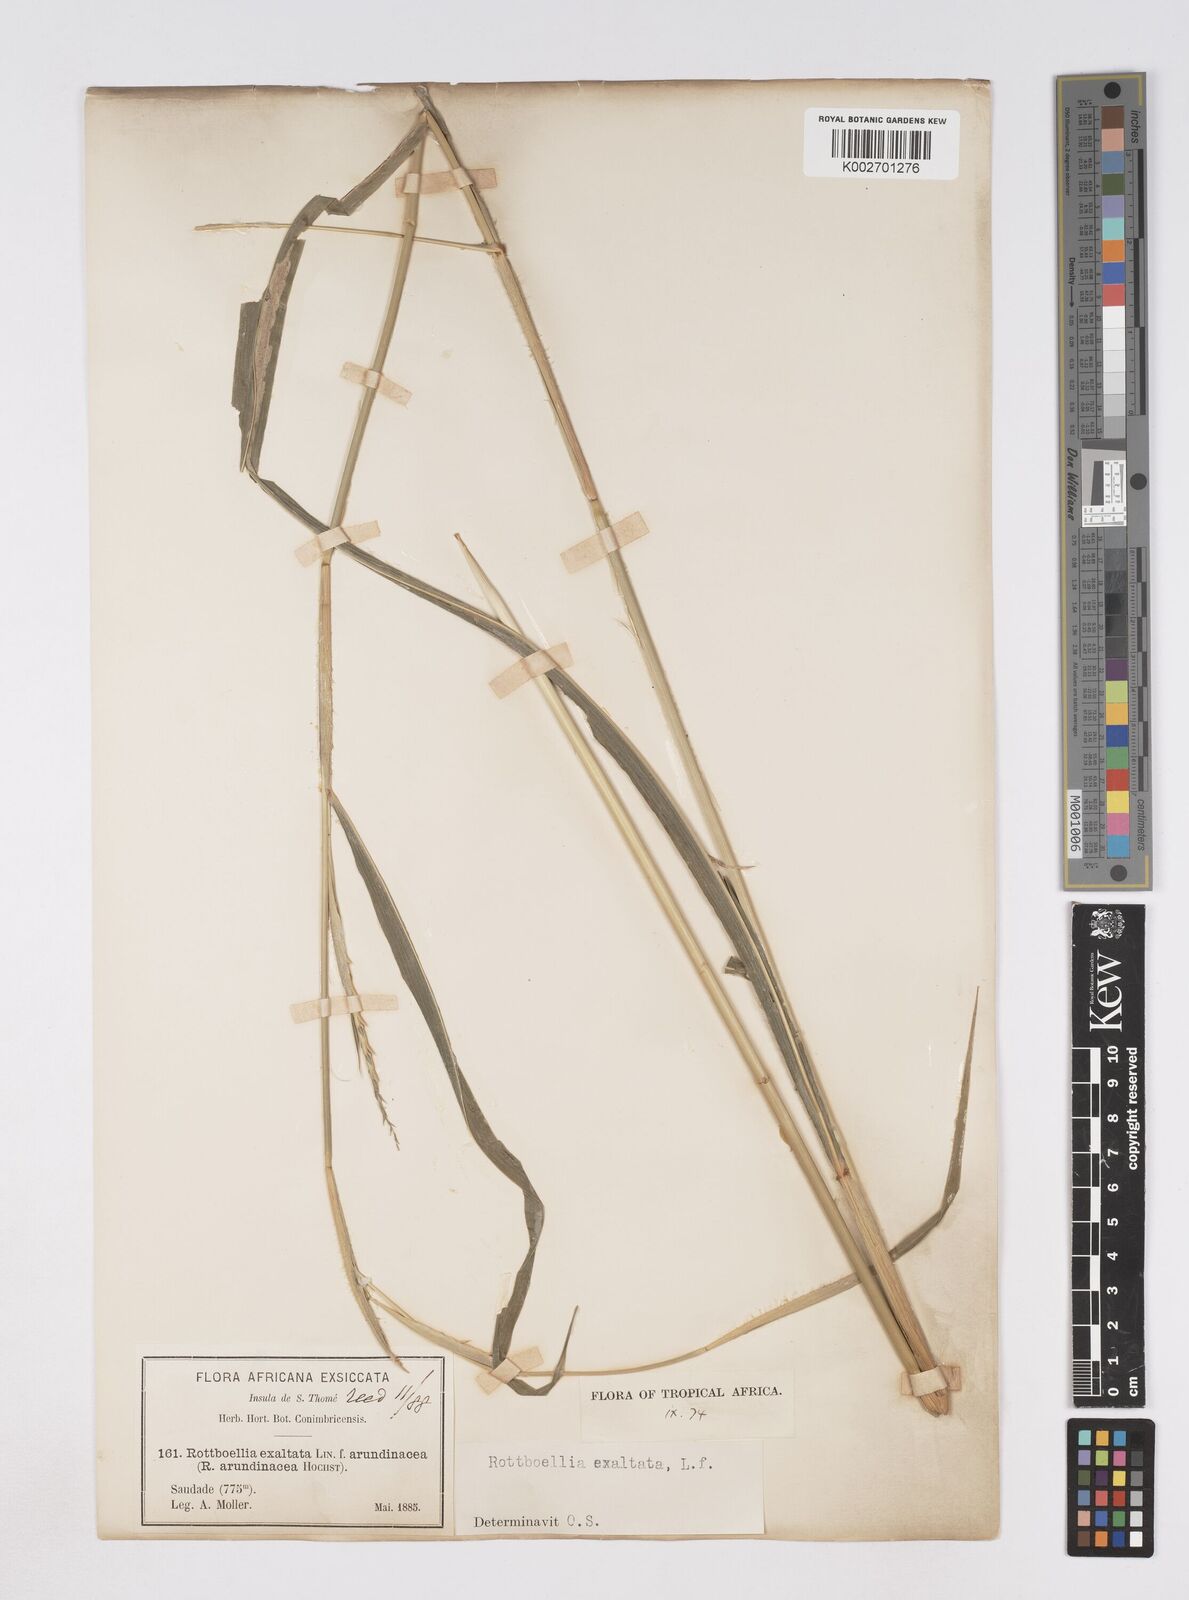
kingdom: Plantae
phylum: Tracheophyta
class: Liliopsida
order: Poales
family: Poaceae
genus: Rottboellia
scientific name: Rottboellia
